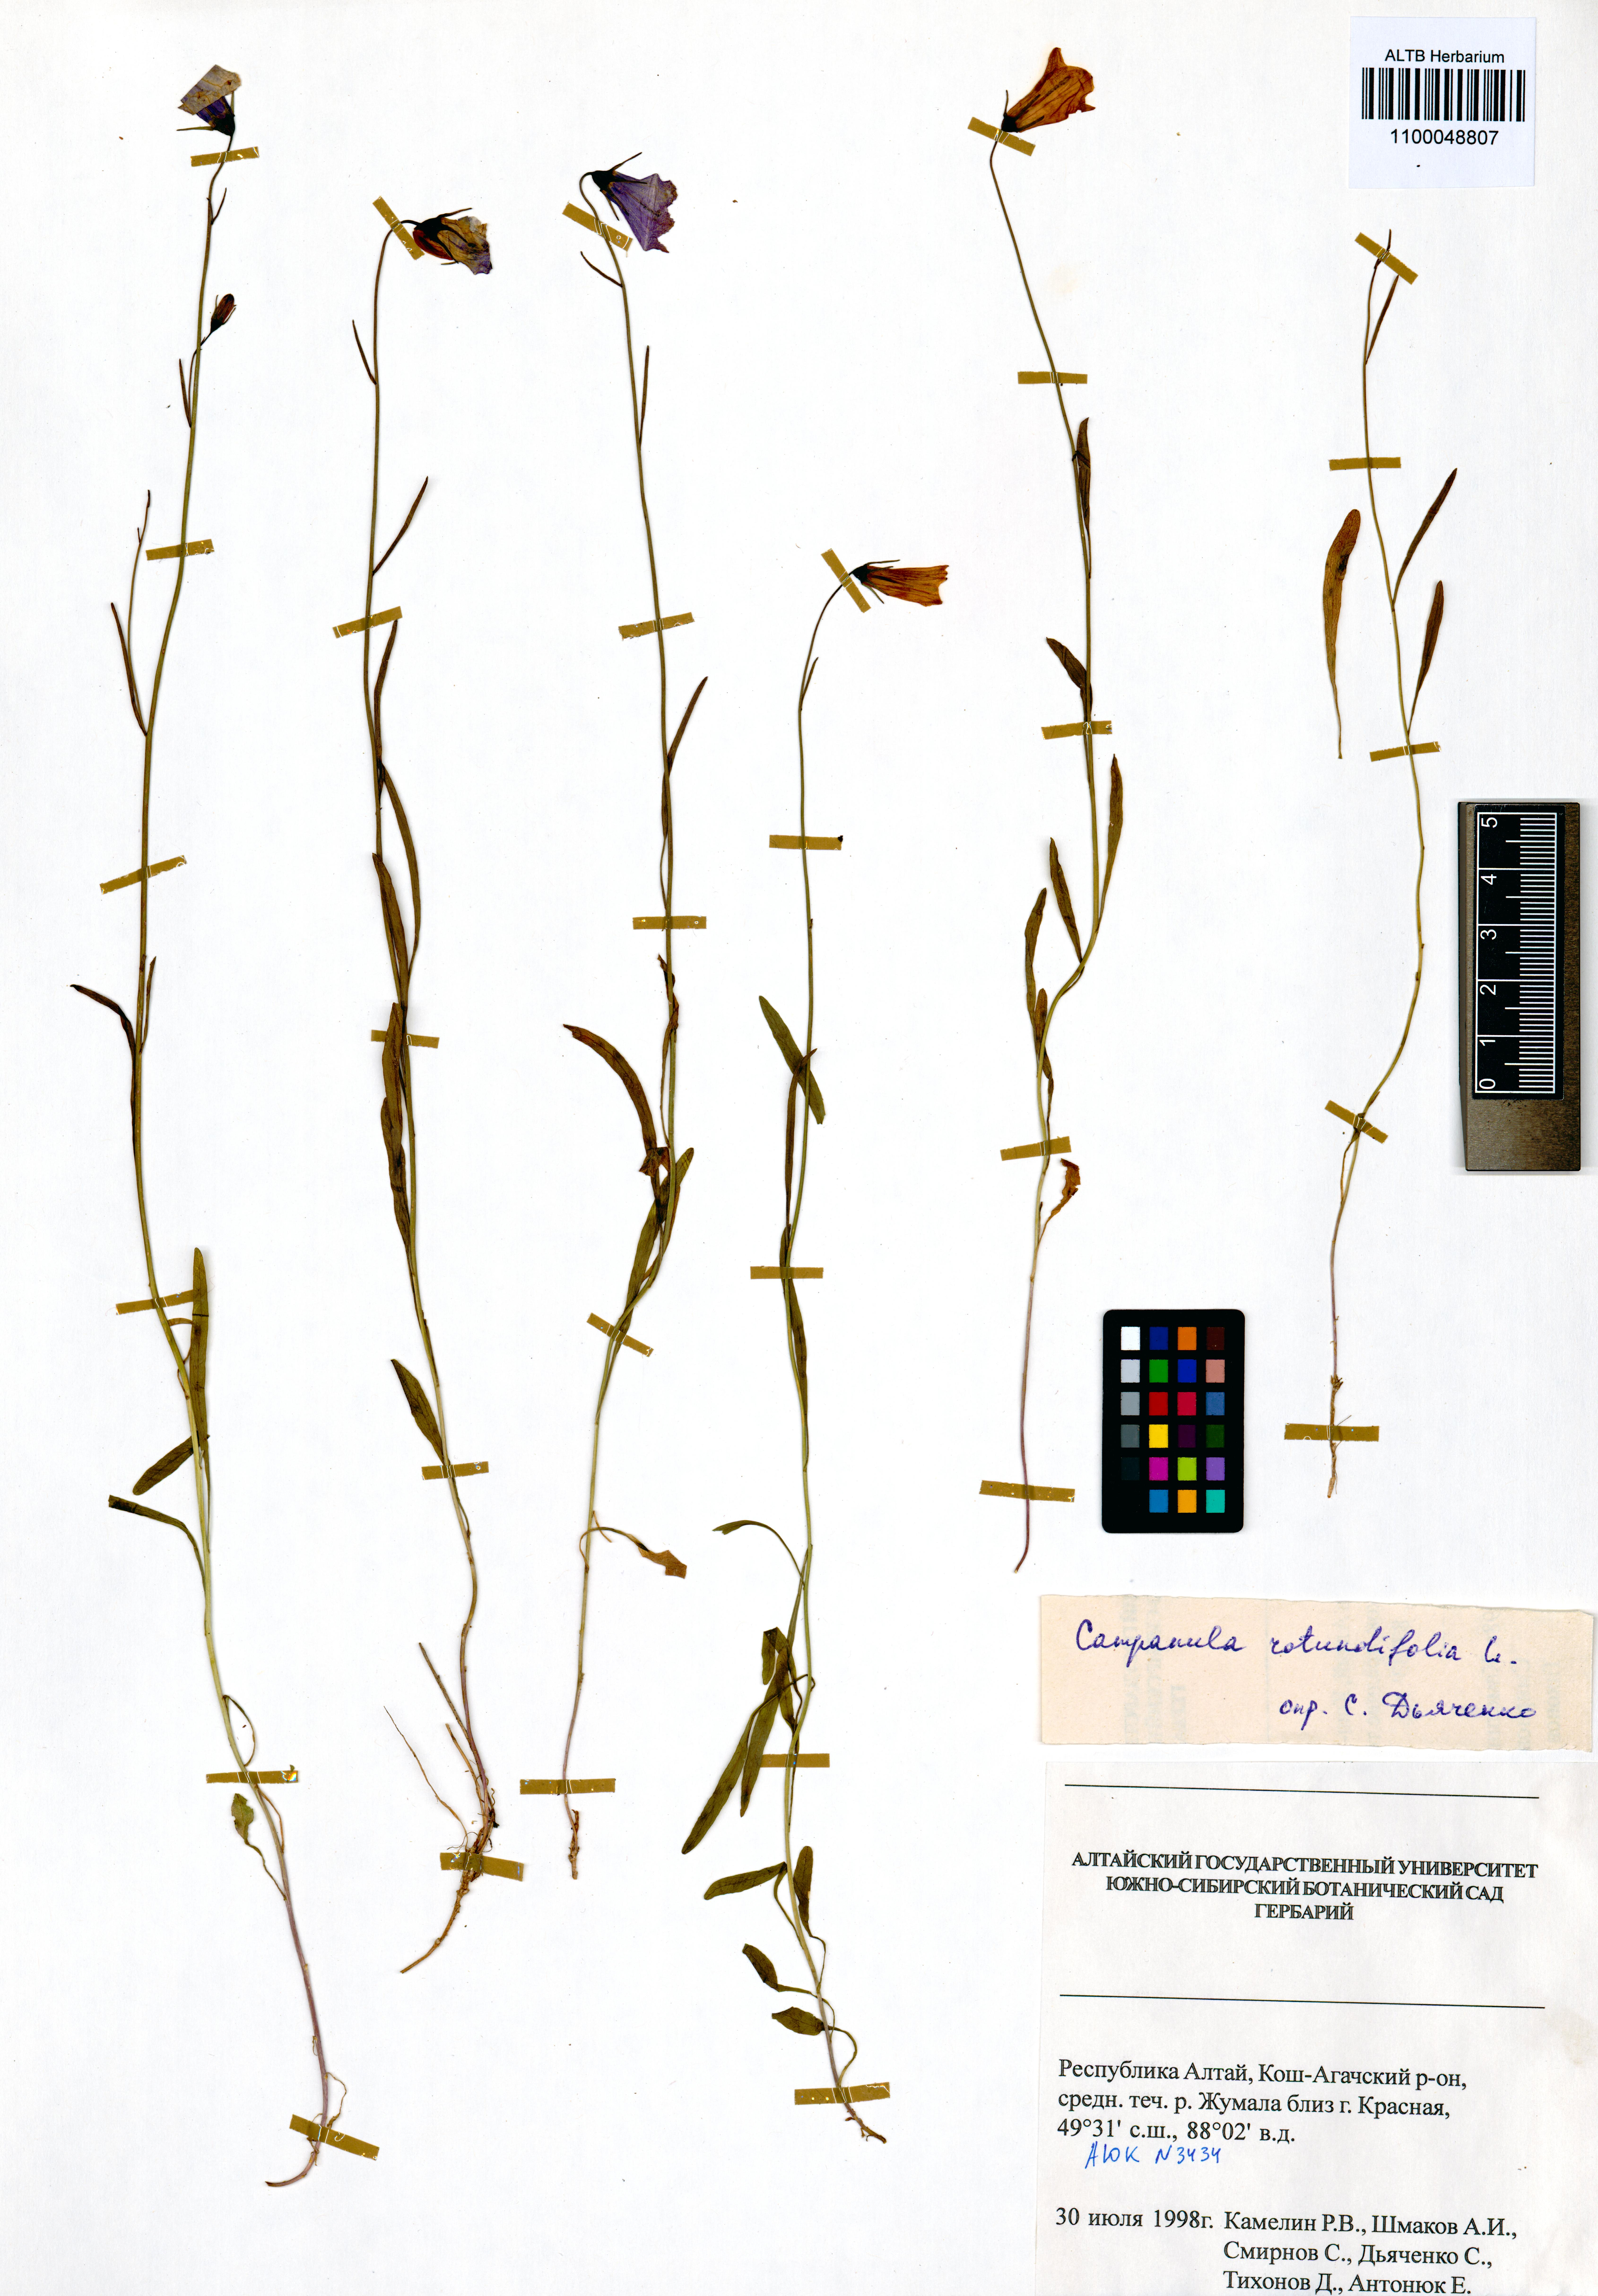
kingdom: Plantae
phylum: Tracheophyta
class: Magnoliopsida
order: Asterales
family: Campanulaceae
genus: Campanula
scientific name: Campanula rotundifolia
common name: Harebell
